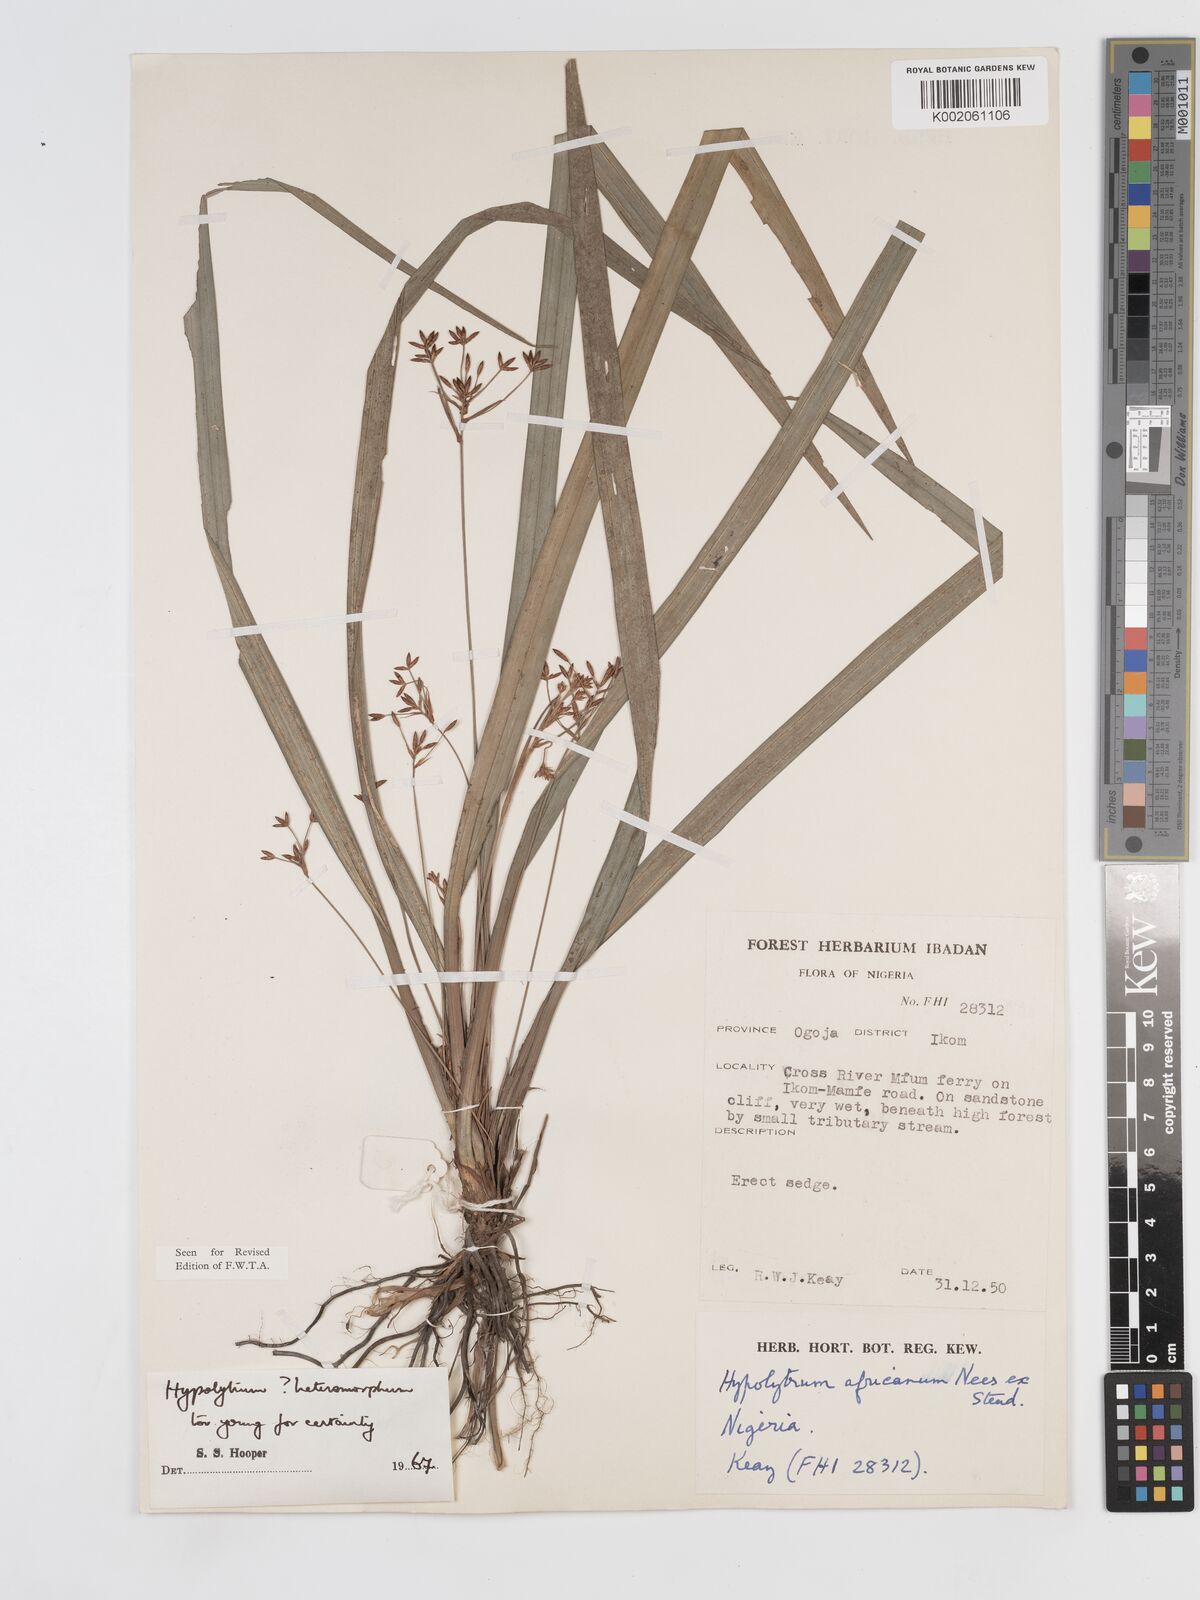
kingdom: Plantae
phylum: Tracheophyta
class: Liliopsida
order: Poales
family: Cyperaceae
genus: Hypolytrum
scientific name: Hypolytrum heteromorphum
